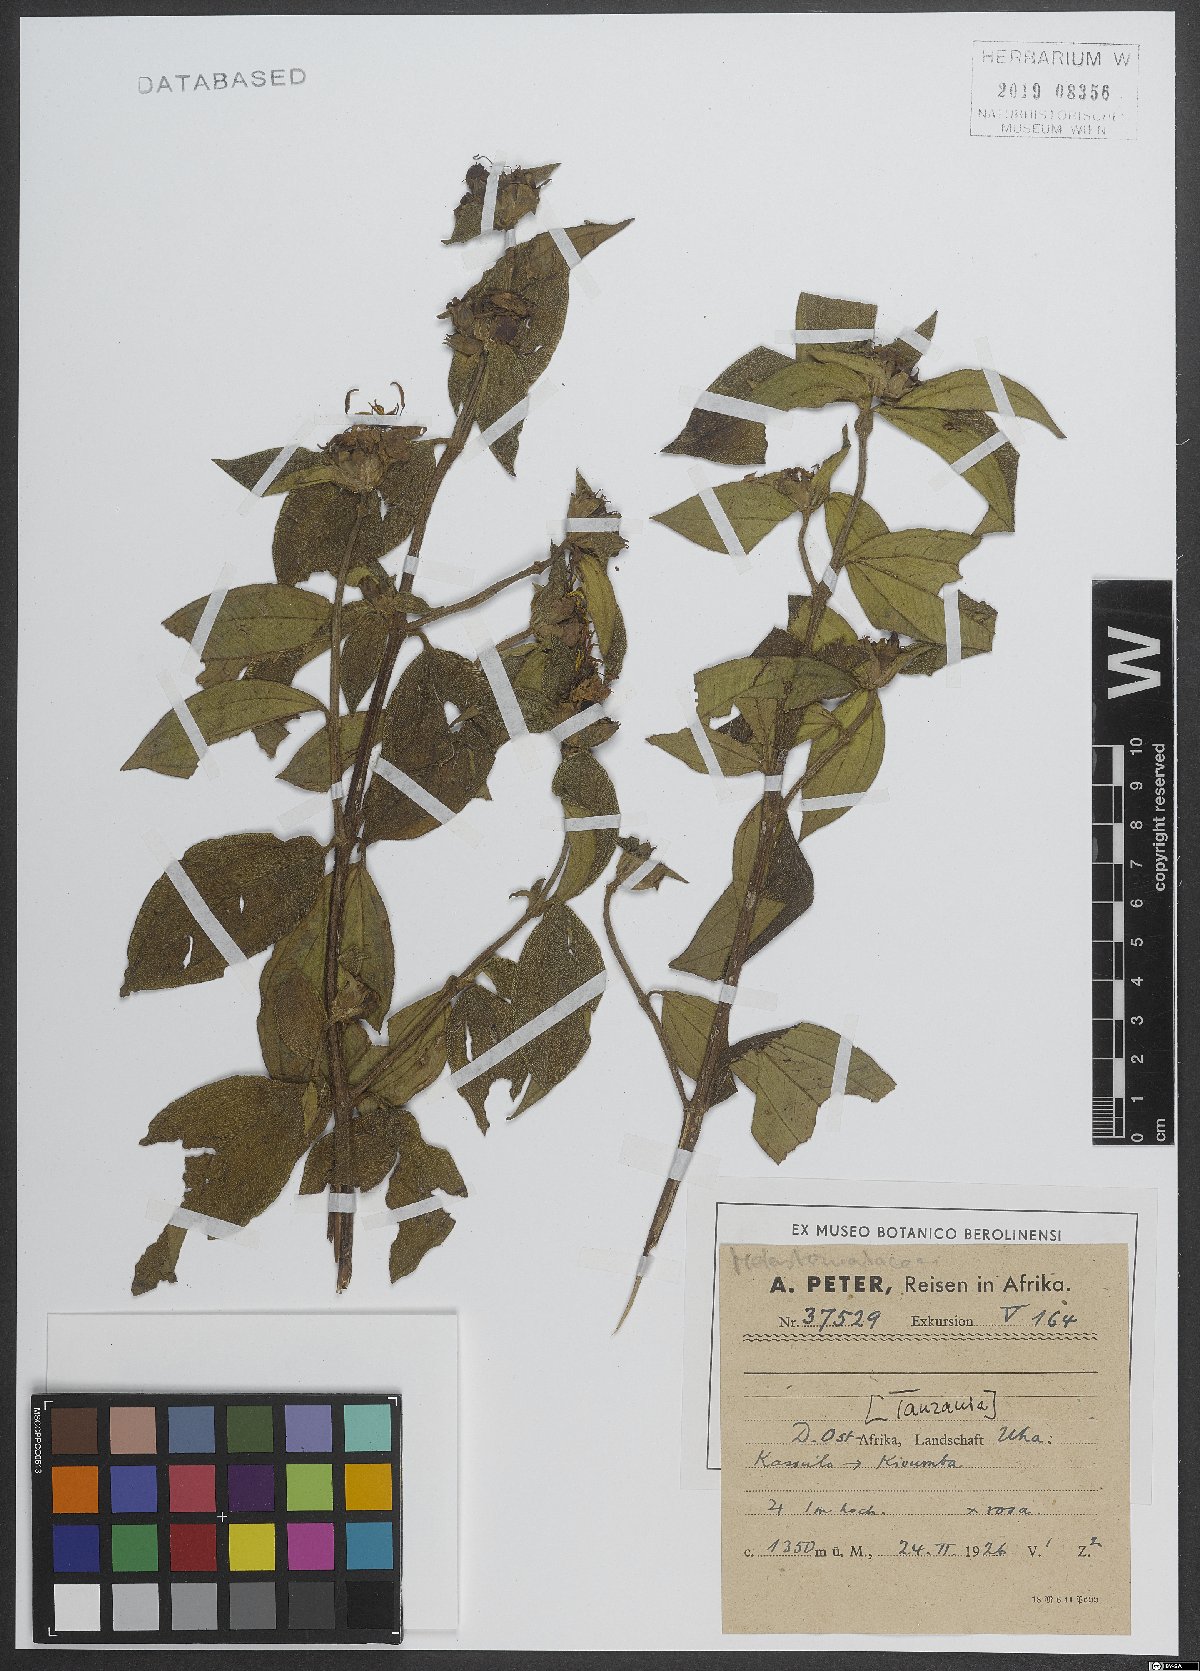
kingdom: Plantae
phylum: Tracheophyta
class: Magnoliopsida
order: Myrtales
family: Melastomataceae
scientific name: Melastomataceae
